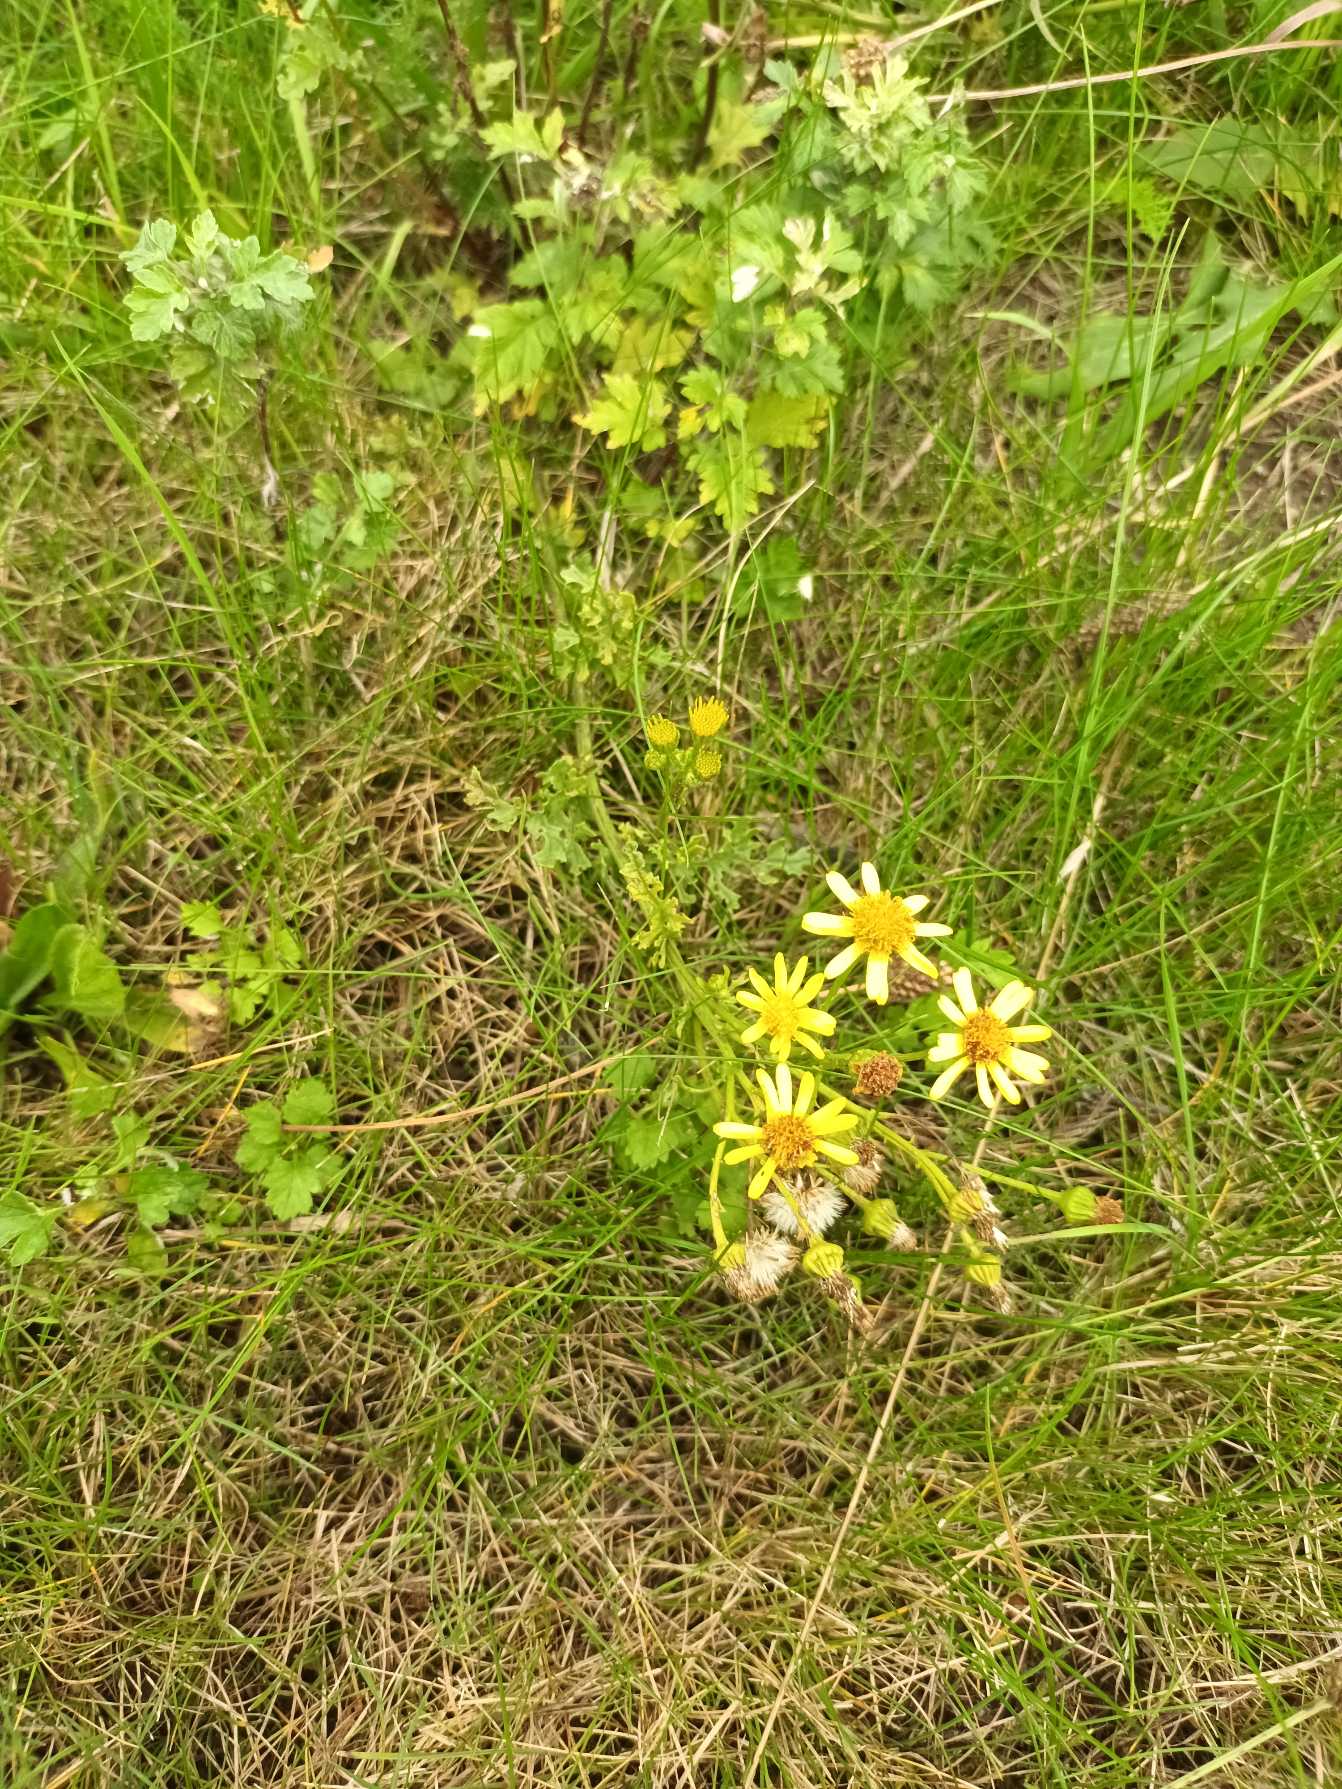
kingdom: Plantae
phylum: Tracheophyta
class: Magnoliopsida
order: Asterales
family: Asteraceae
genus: Jacobaea
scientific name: Jacobaea vulgaris
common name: Eng-brandbæger
